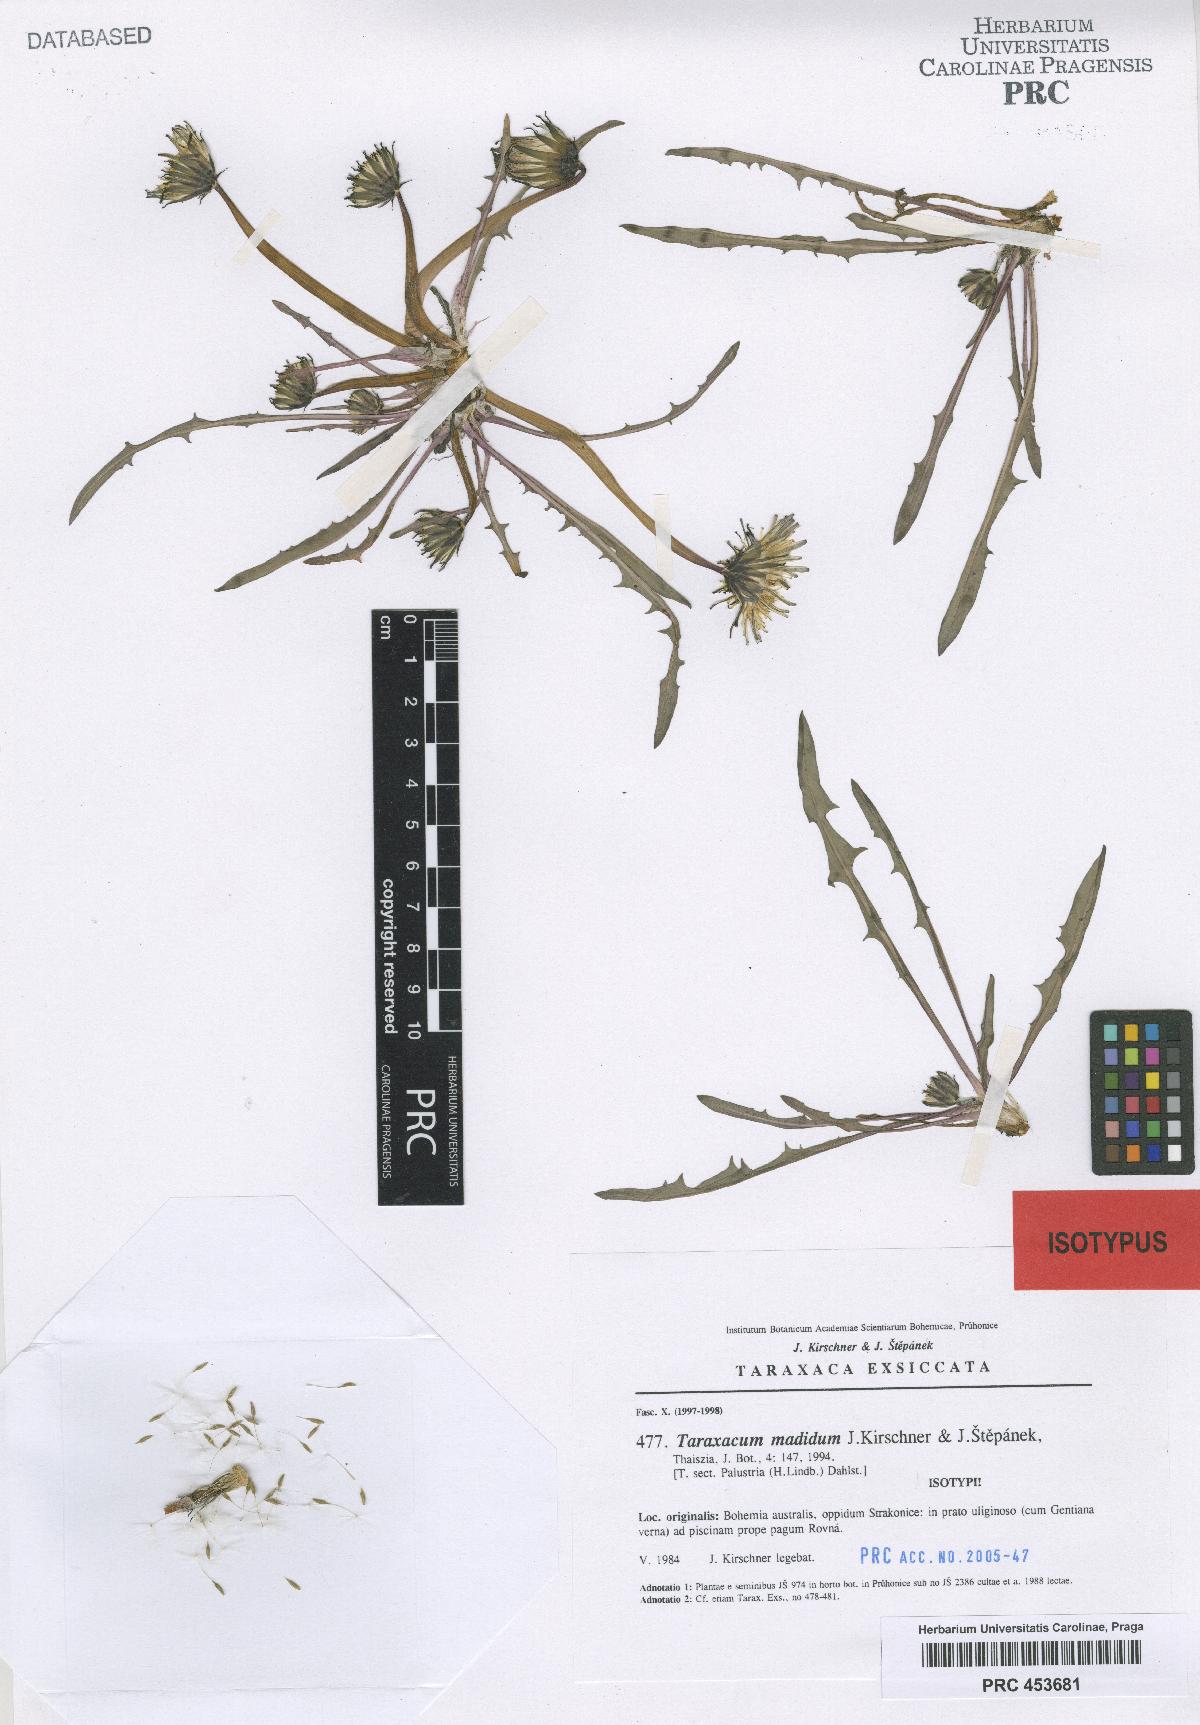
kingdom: Plantae
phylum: Tracheophyta
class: Magnoliopsida
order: Asterales
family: Asteraceae
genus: Taraxacum
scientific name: Taraxacum madidum
